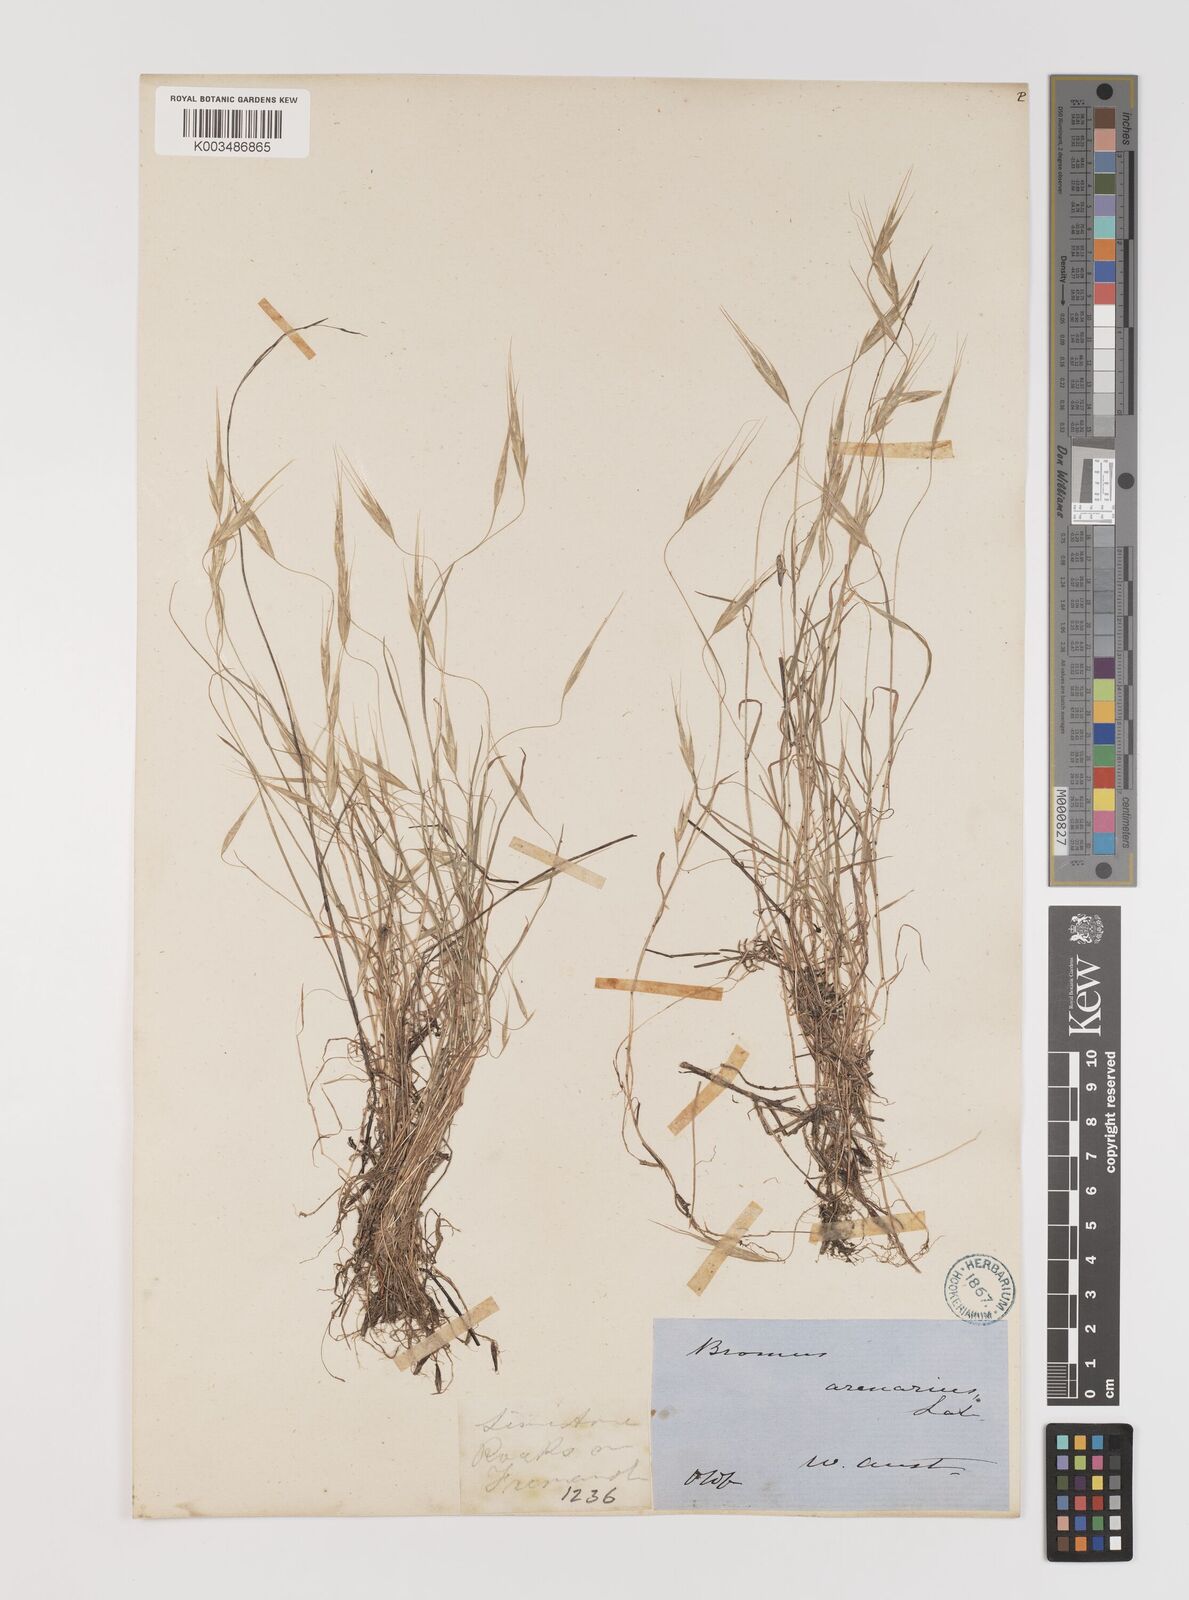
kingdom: Plantae
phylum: Tracheophyta
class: Liliopsida
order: Poales
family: Poaceae
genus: Bromus
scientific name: Bromus arenarius
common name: Australian brome
